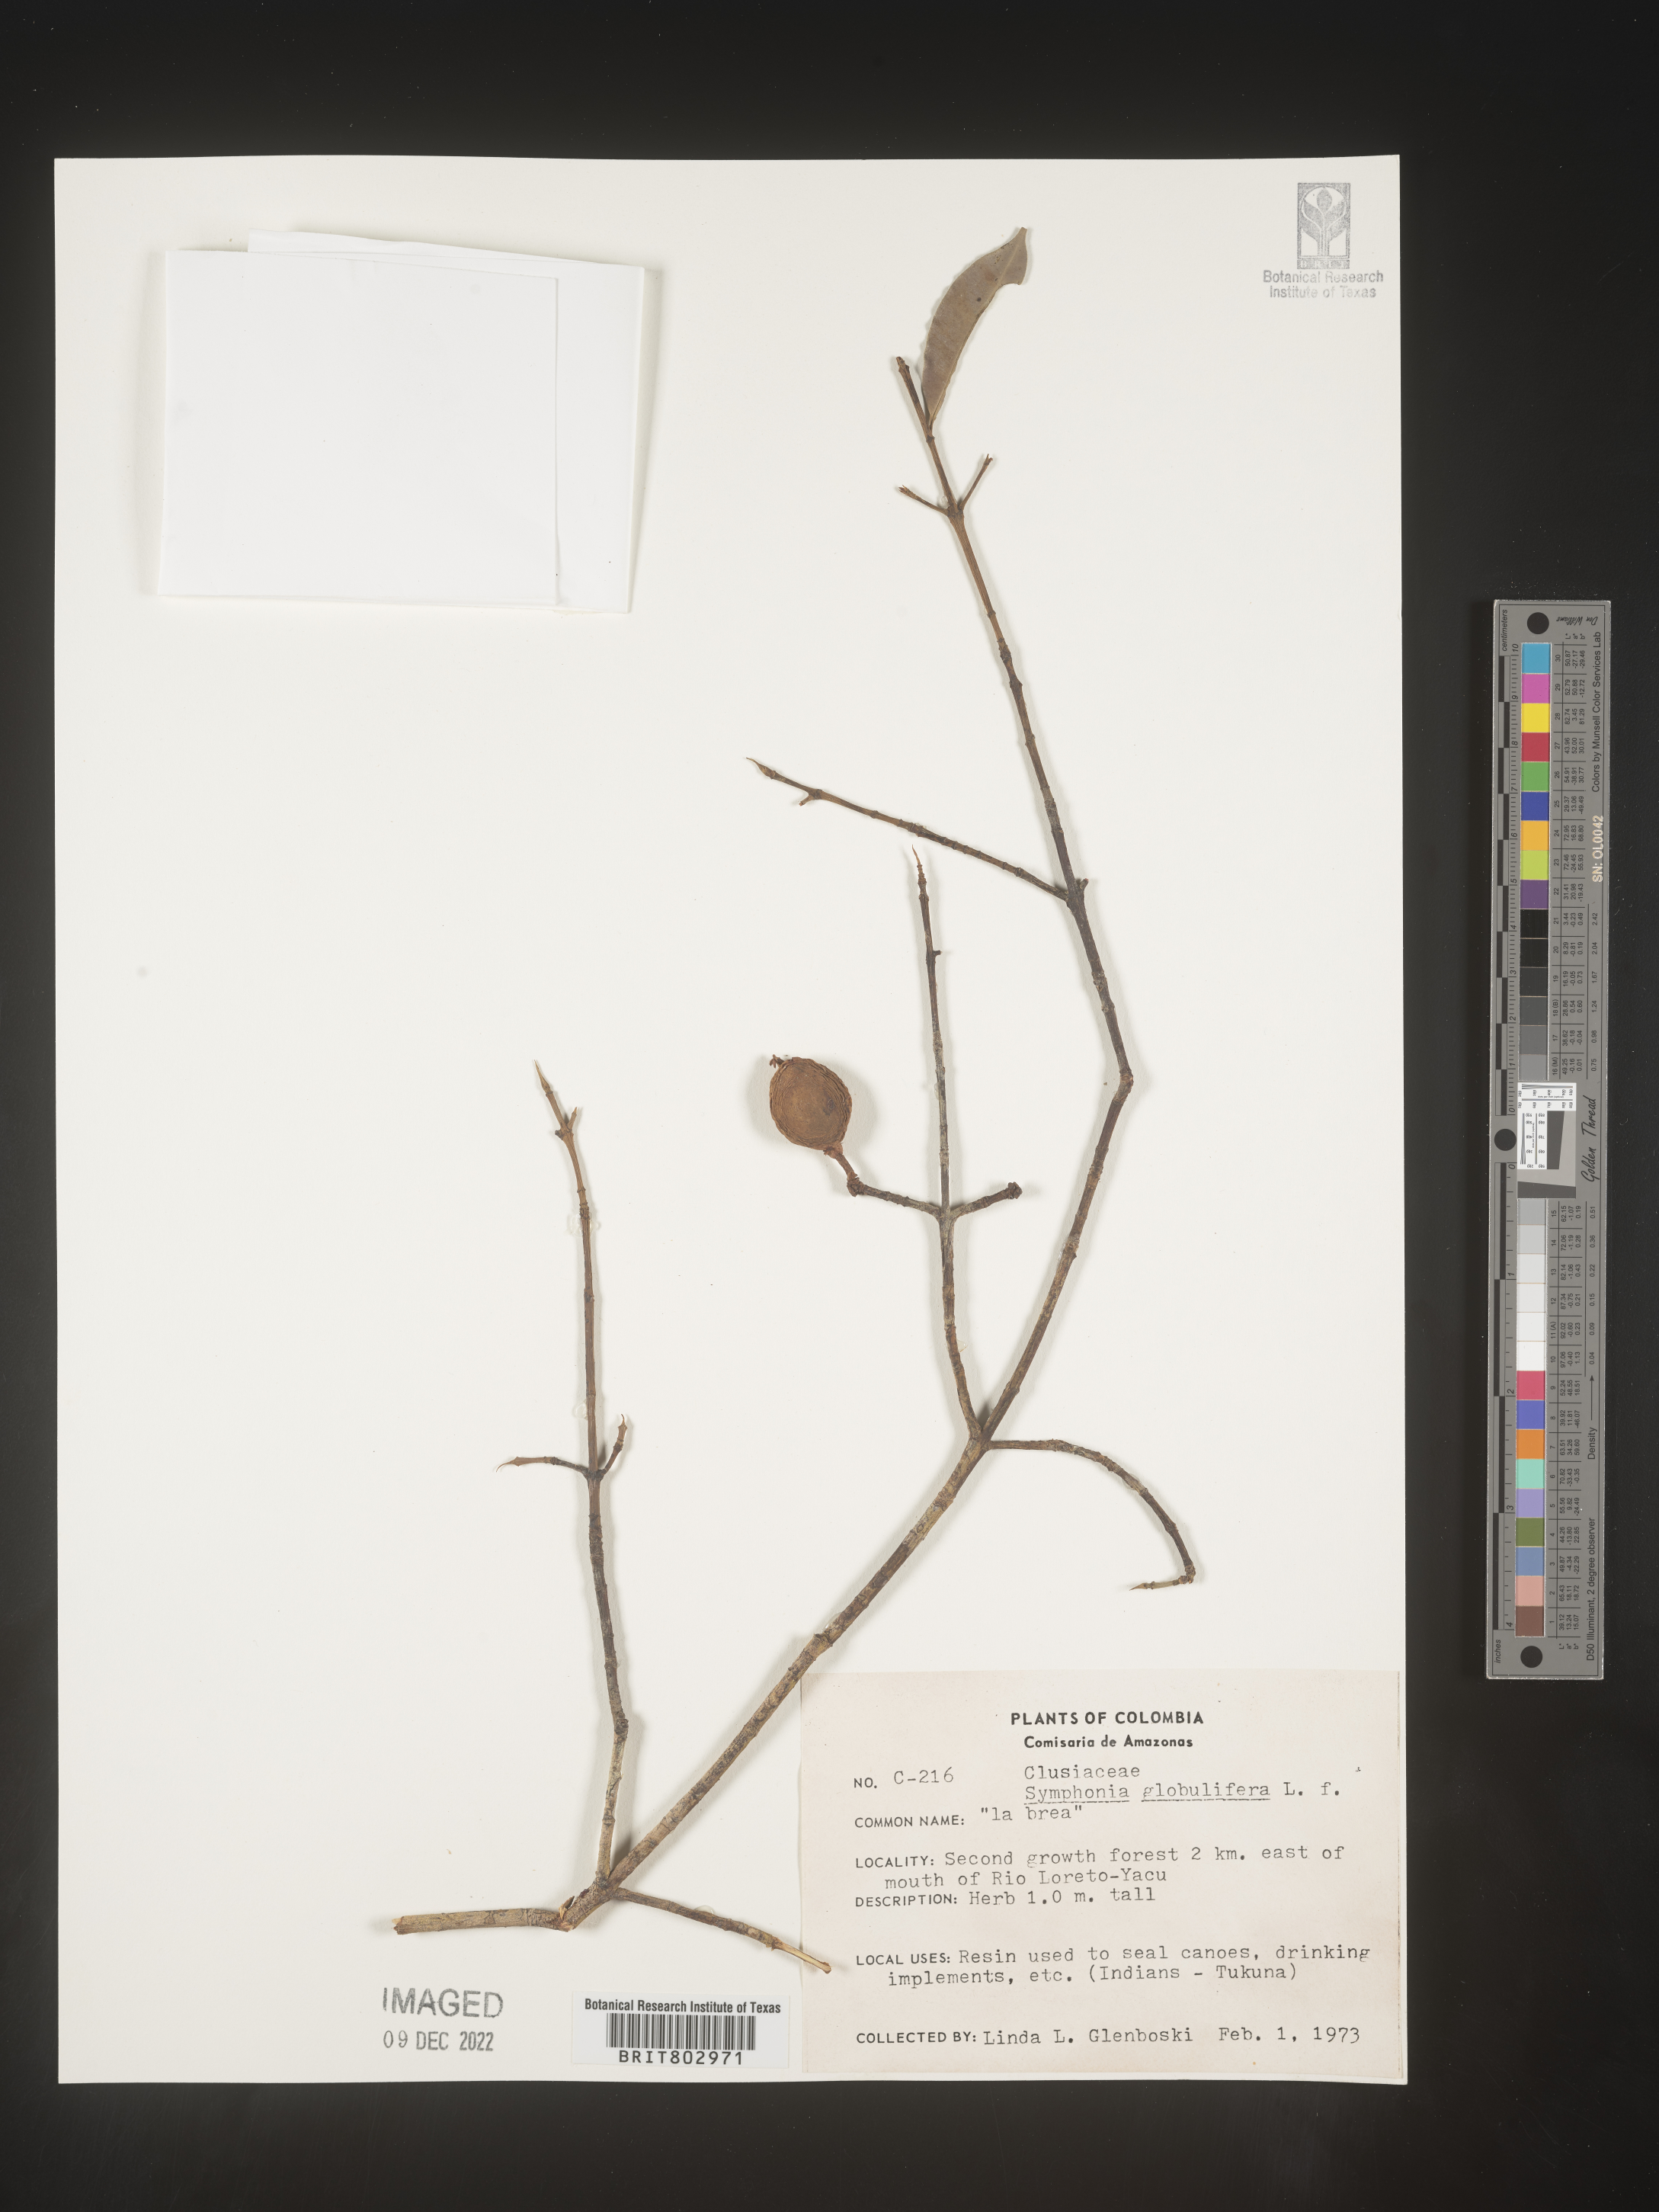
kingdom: Plantae
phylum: Tracheophyta
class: Magnoliopsida
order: Malpighiales
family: Clusiaceae
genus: Symphonia
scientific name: Symphonia globulifera
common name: Boarwood
